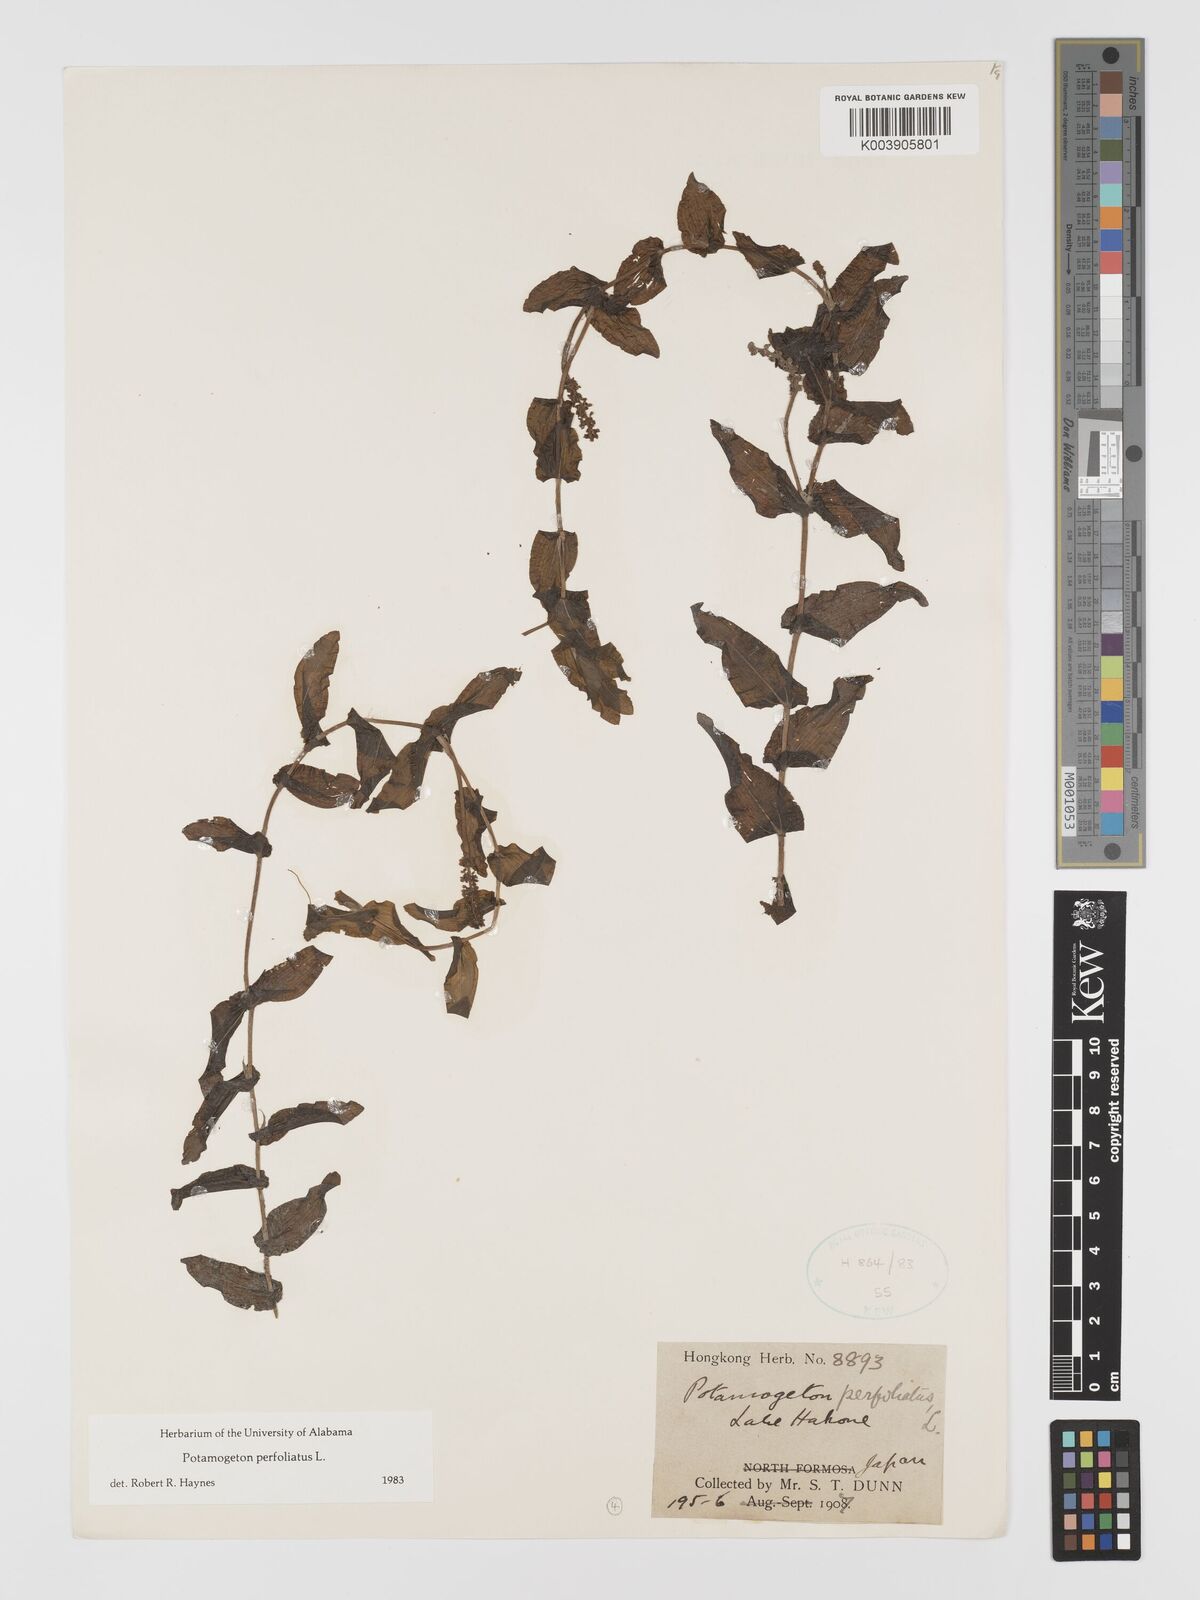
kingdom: Plantae
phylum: Tracheophyta
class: Liliopsida
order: Alismatales
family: Potamogetonaceae
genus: Potamogeton
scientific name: Potamogeton perfoliatus
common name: Perfoliate pondweed
